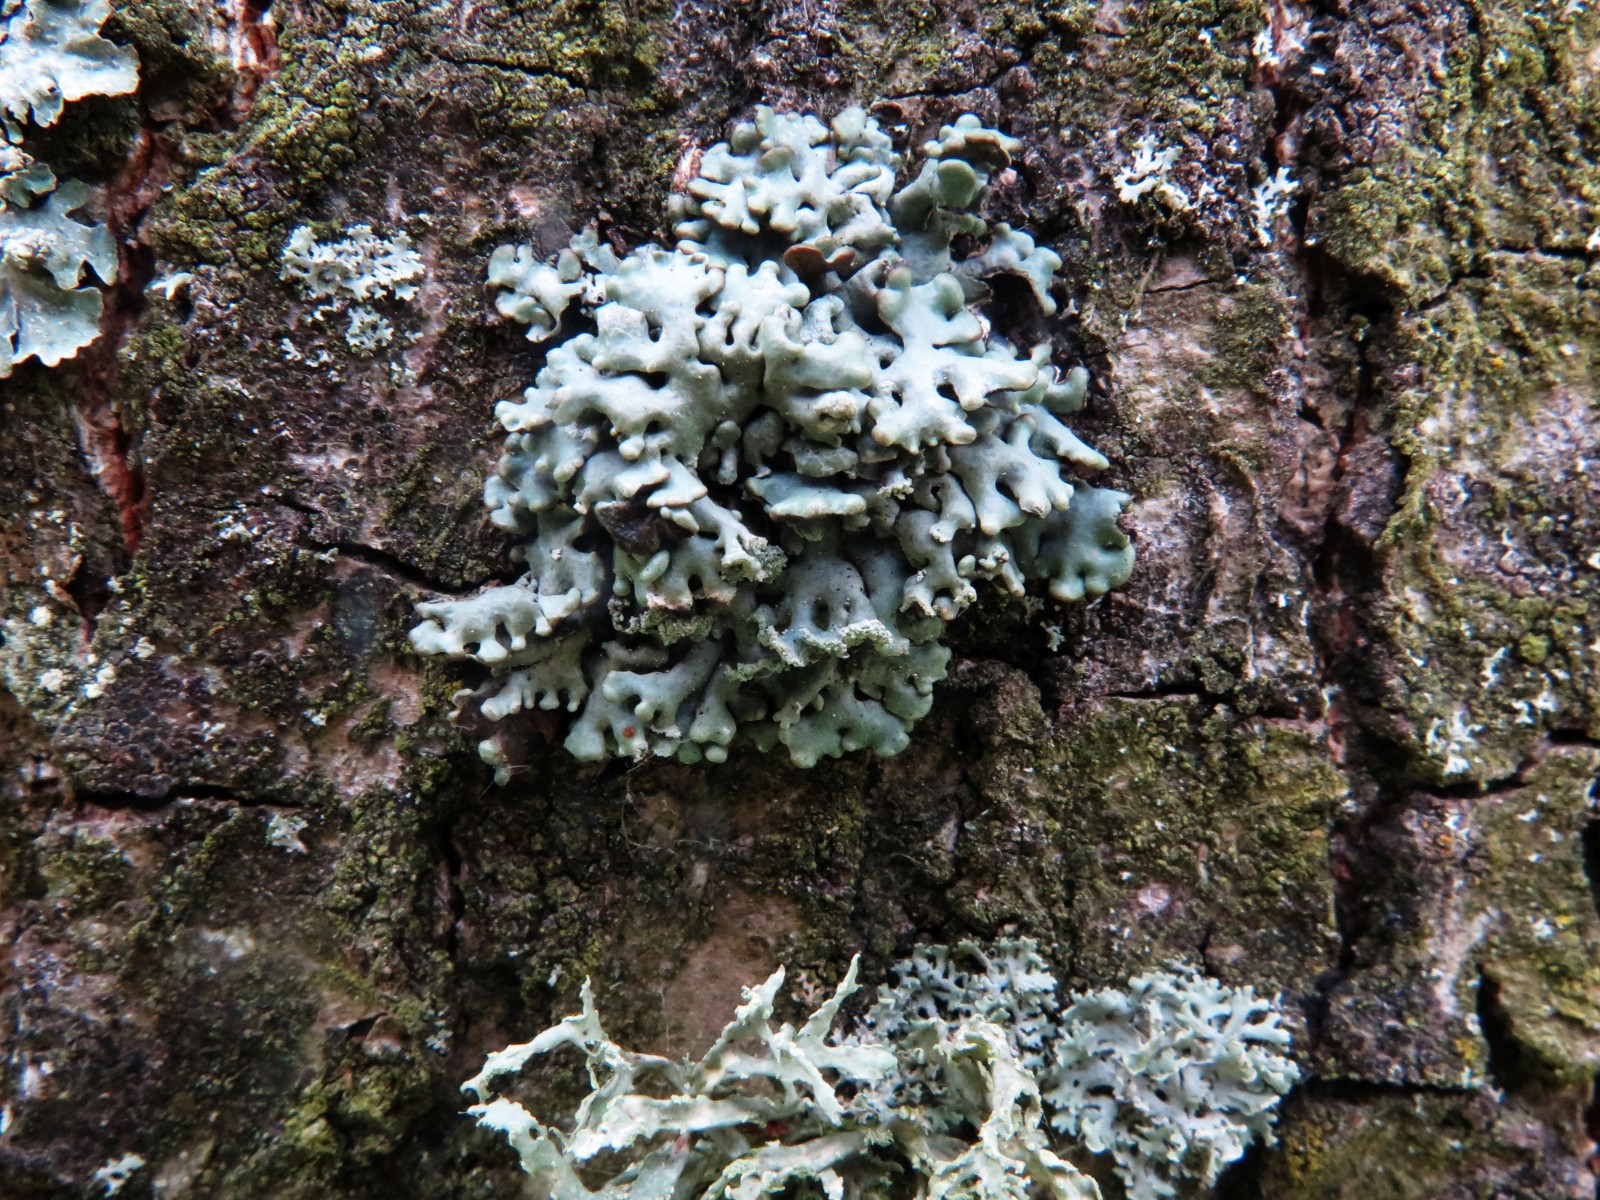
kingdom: Fungi
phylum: Ascomycota
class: Lecanoromycetes
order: Lecanorales
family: Parmeliaceae
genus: Hypogymnia
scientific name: Hypogymnia physodes
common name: almindelig kvistlav
